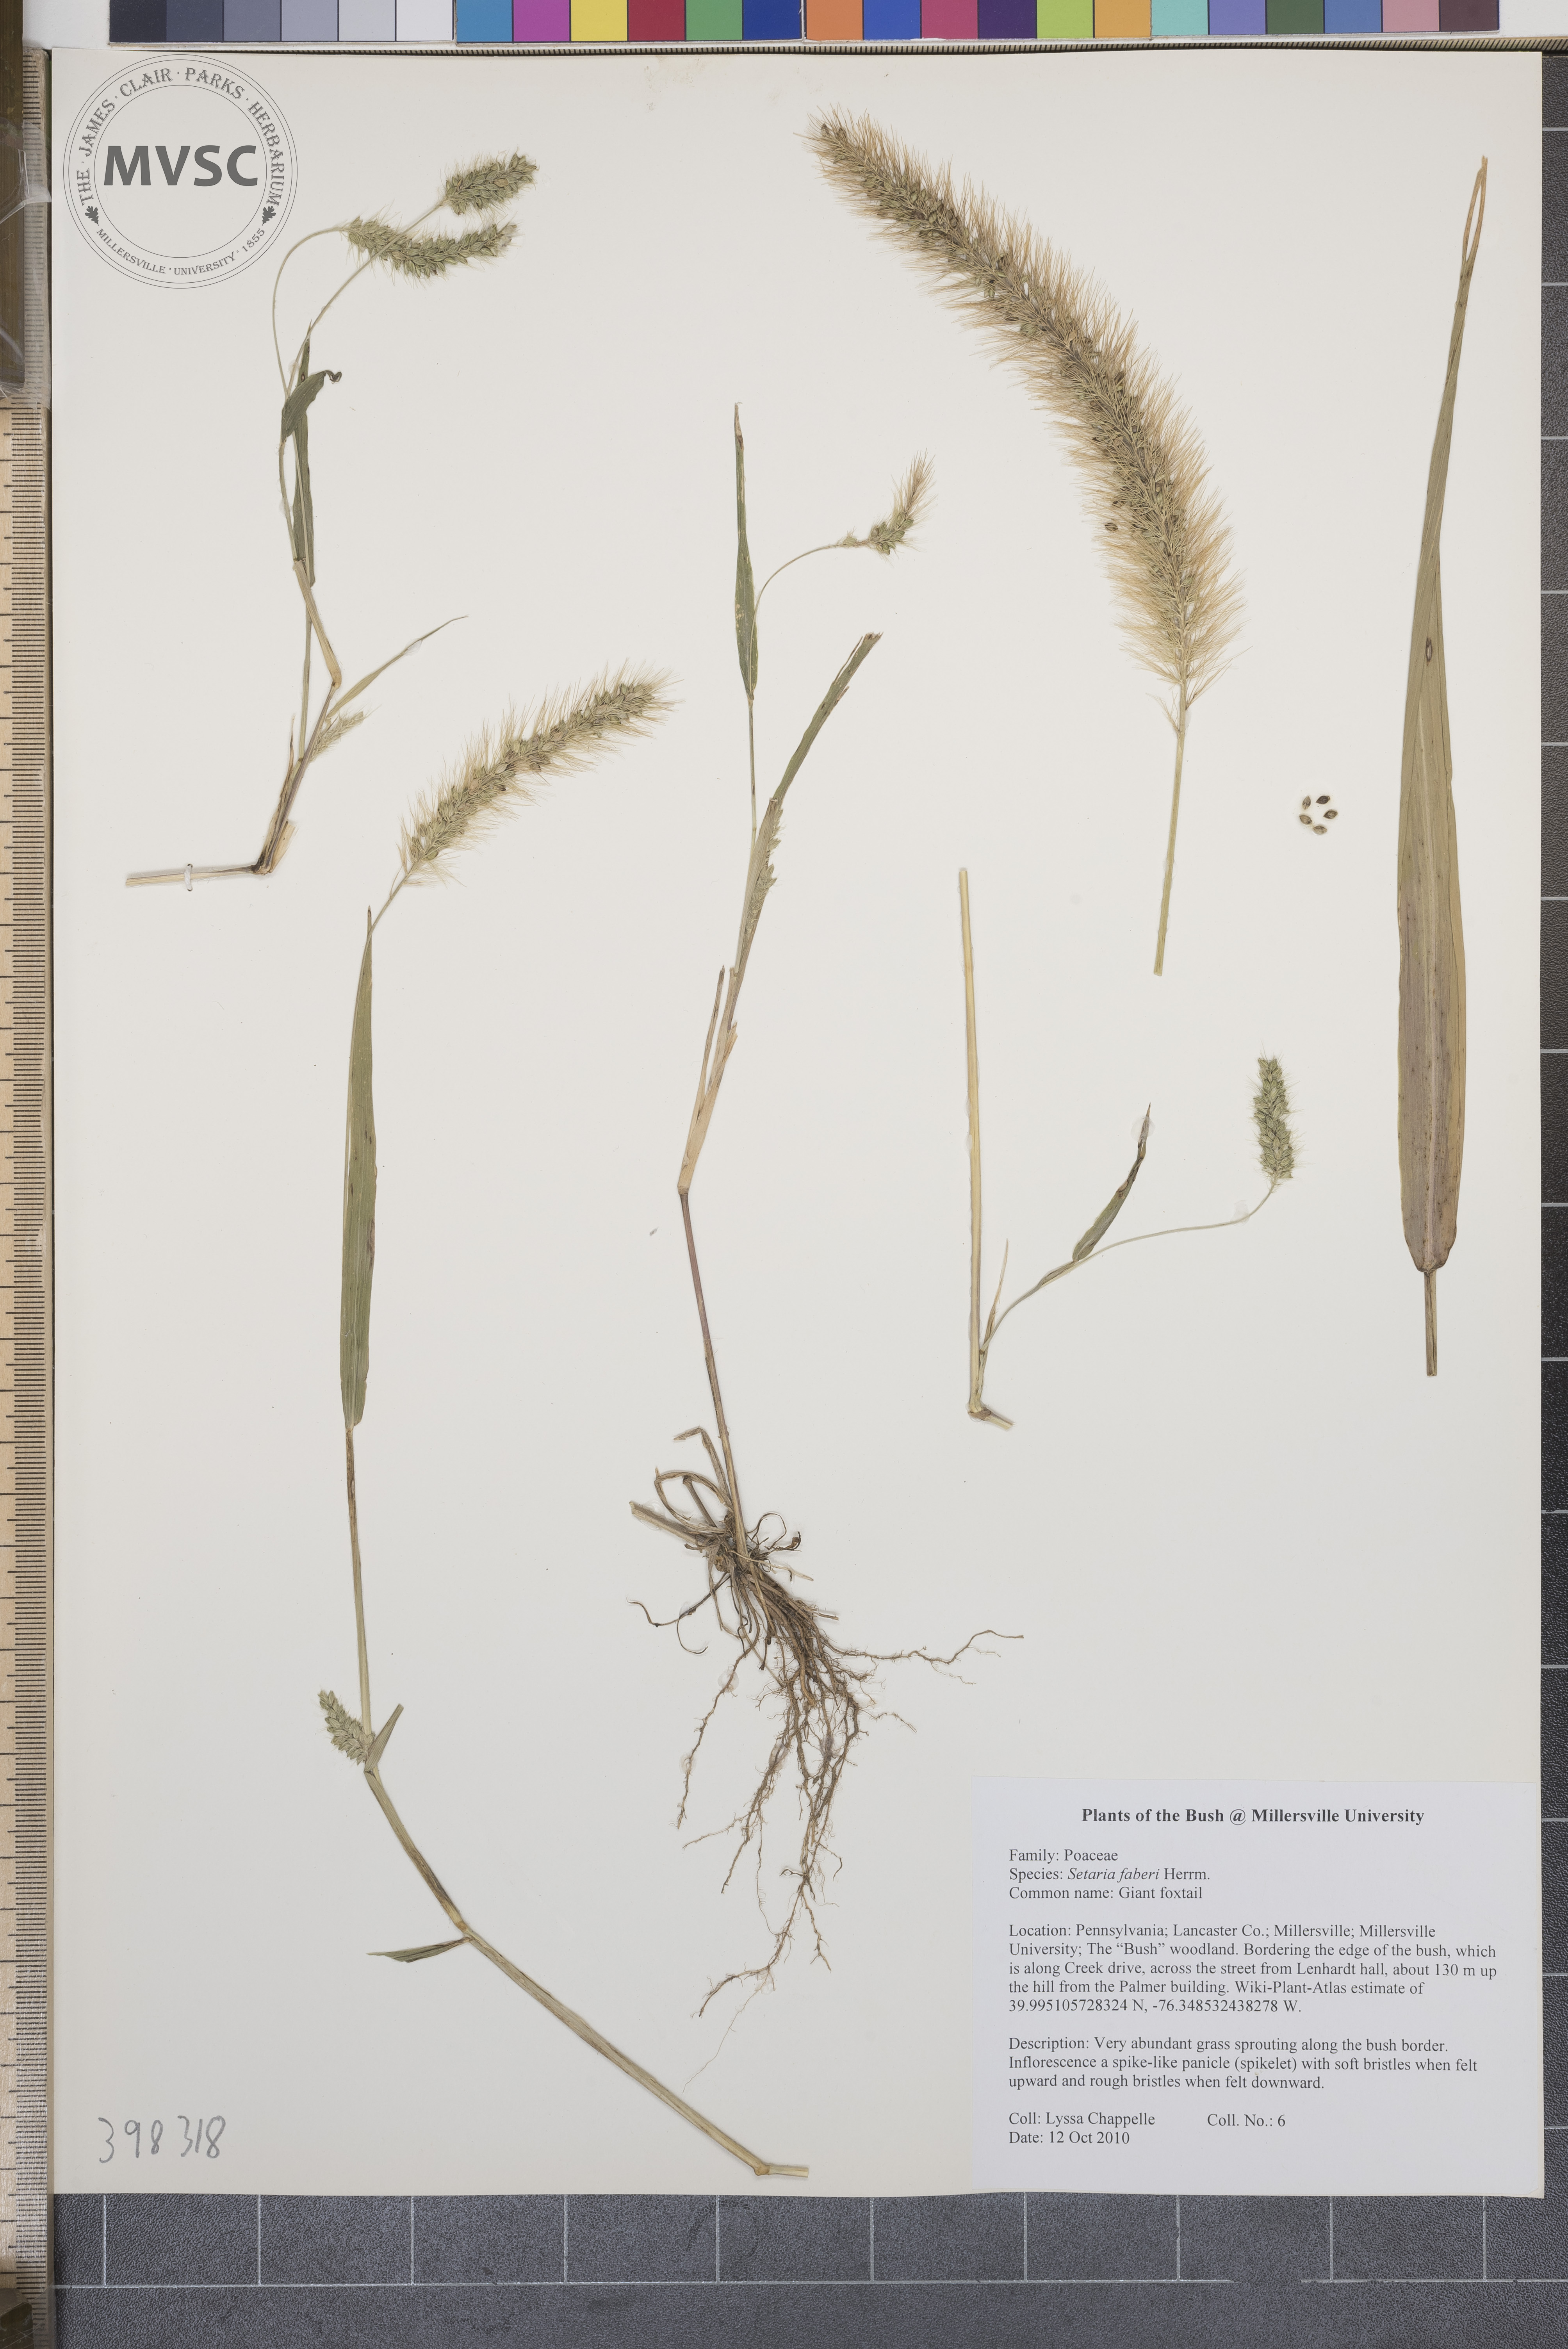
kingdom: Plantae
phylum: Tracheophyta
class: Liliopsida
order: Poales
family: Poaceae
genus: Setaria
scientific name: Setaria faberi
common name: Giant foxtail
